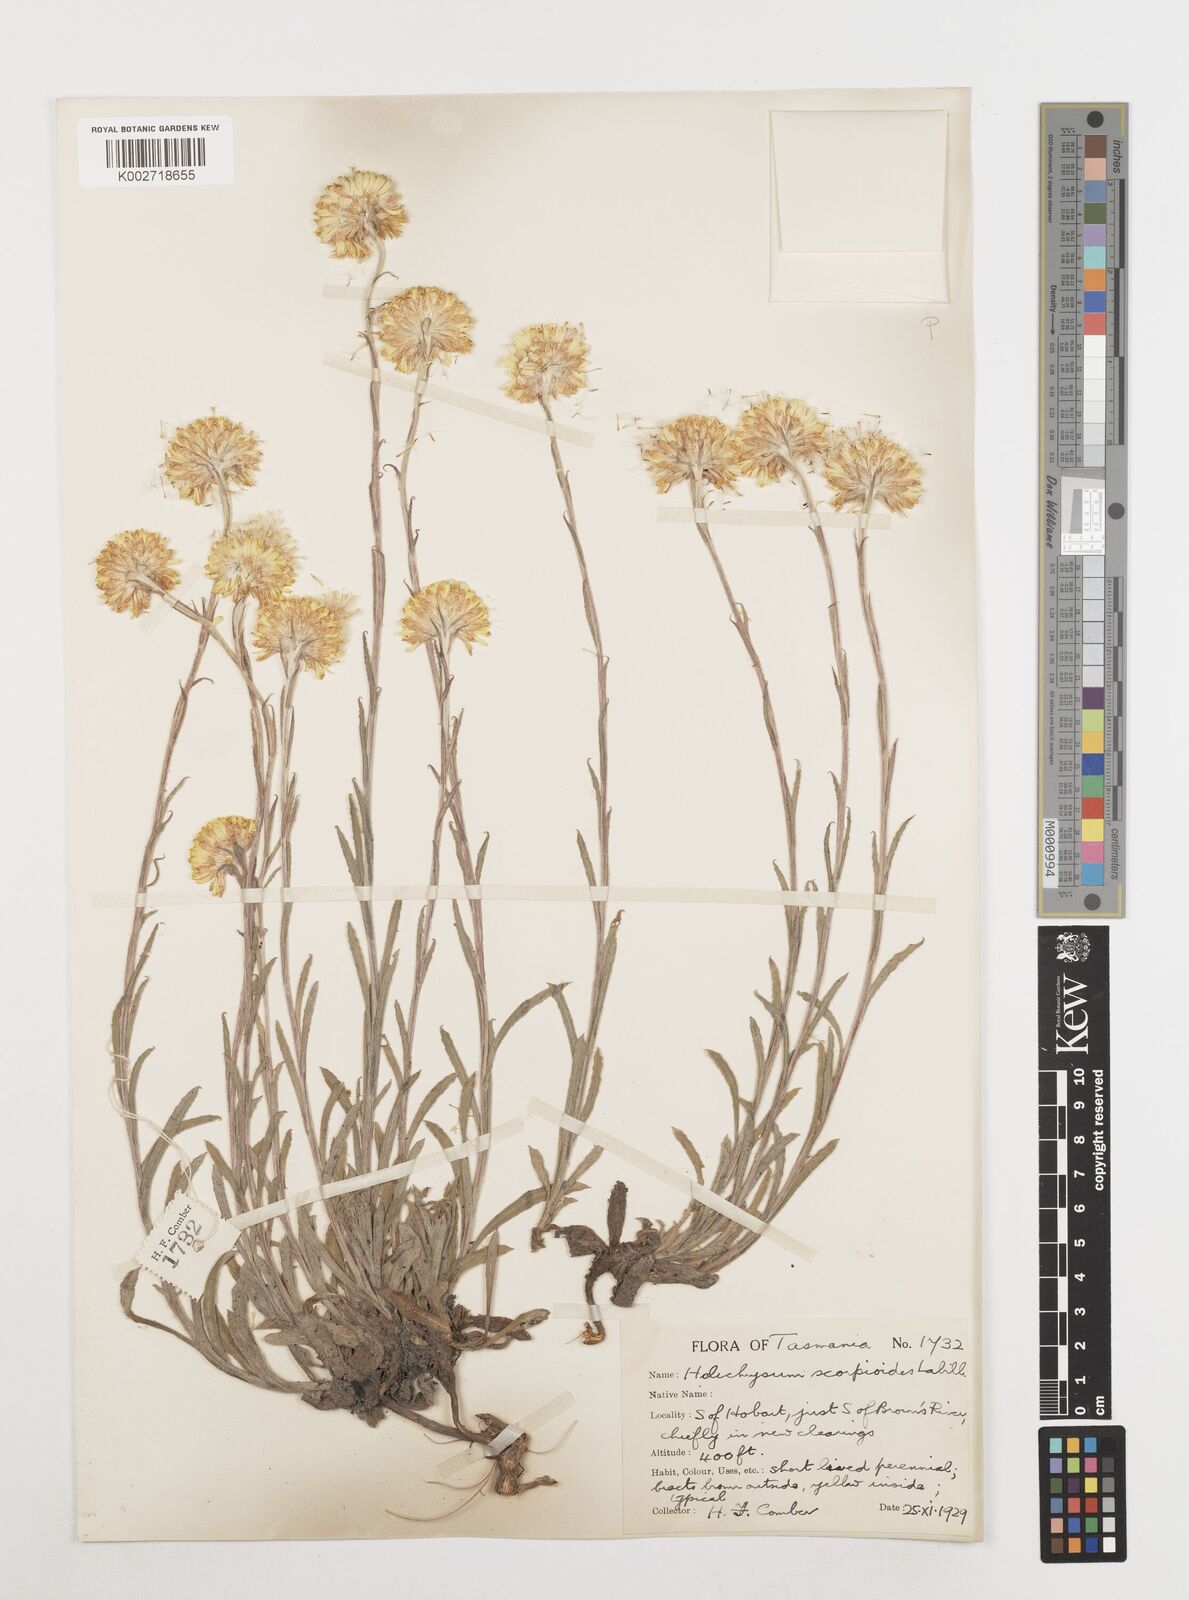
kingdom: Plantae
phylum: Tracheophyta
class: Magnoliopsida
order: Asterales
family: Asteraceae
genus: Coronidium
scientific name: Coronidium scorpioides
